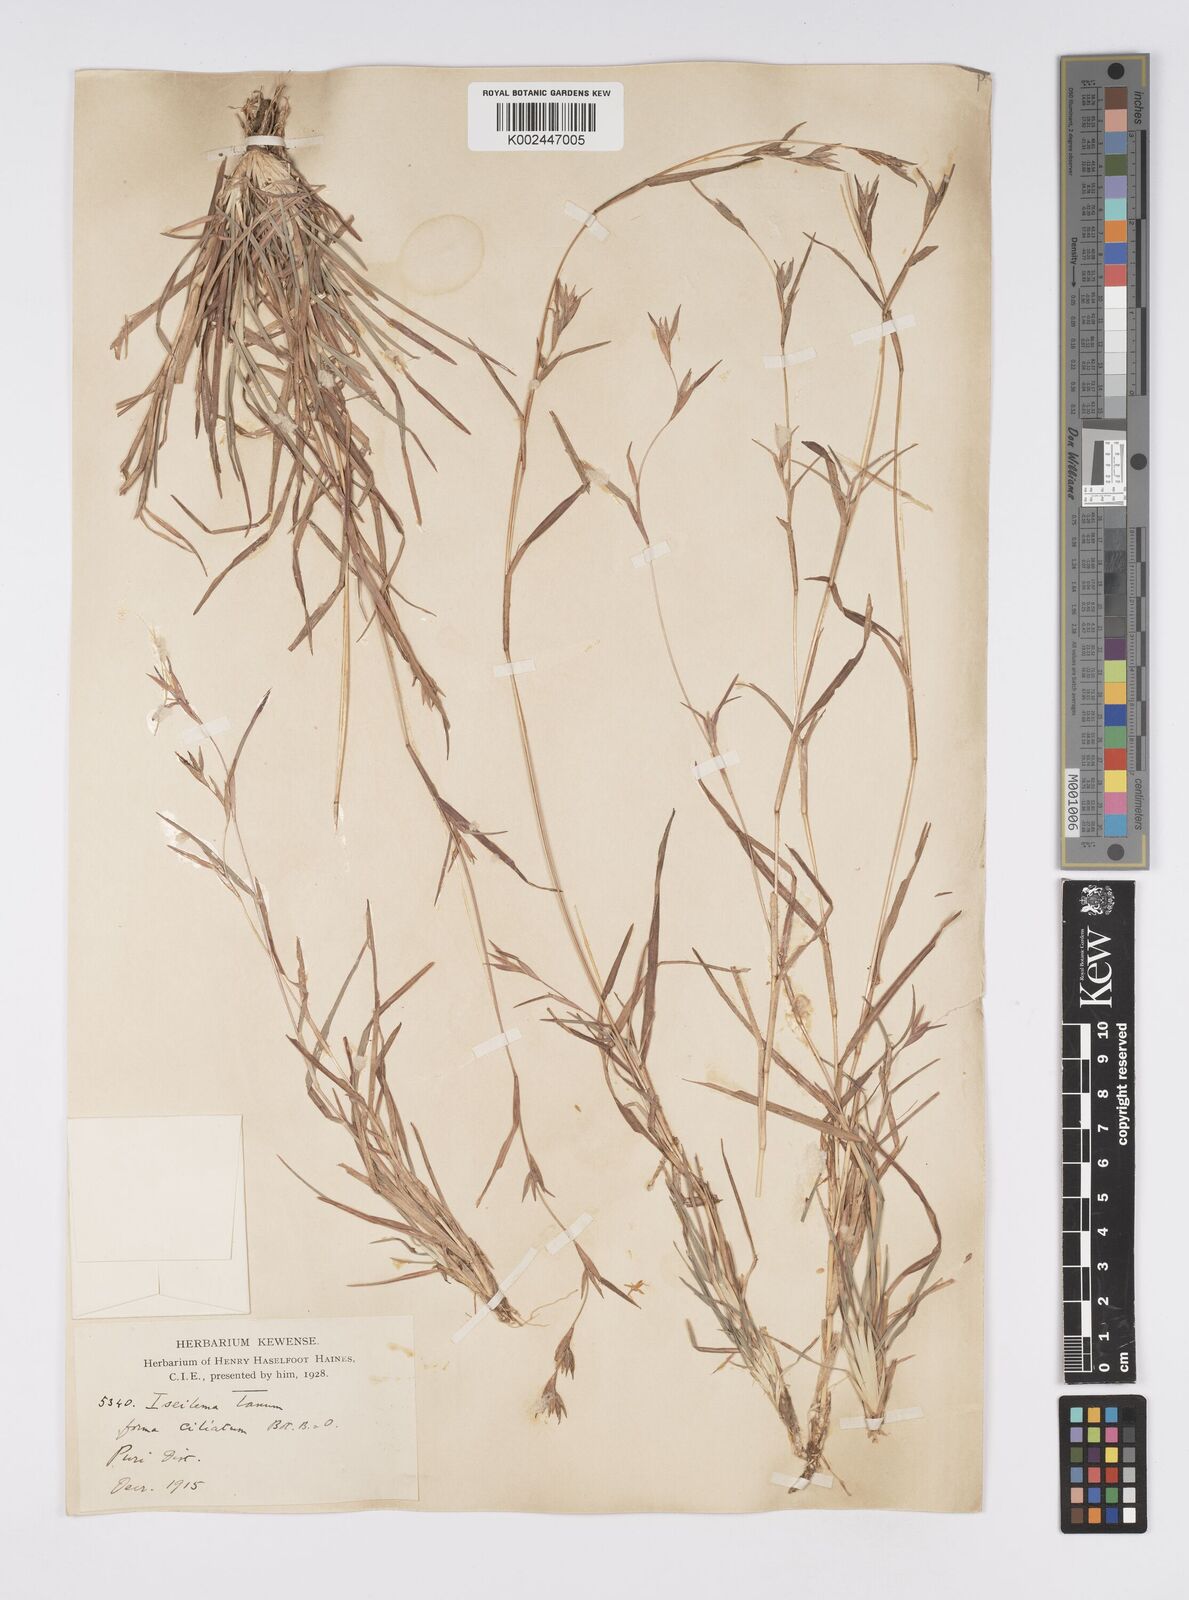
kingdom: Plantae
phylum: Tracheophyta
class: Liliopsida
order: Poales
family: Poaceae
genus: Iseilema
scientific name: Iseilema prostratum
